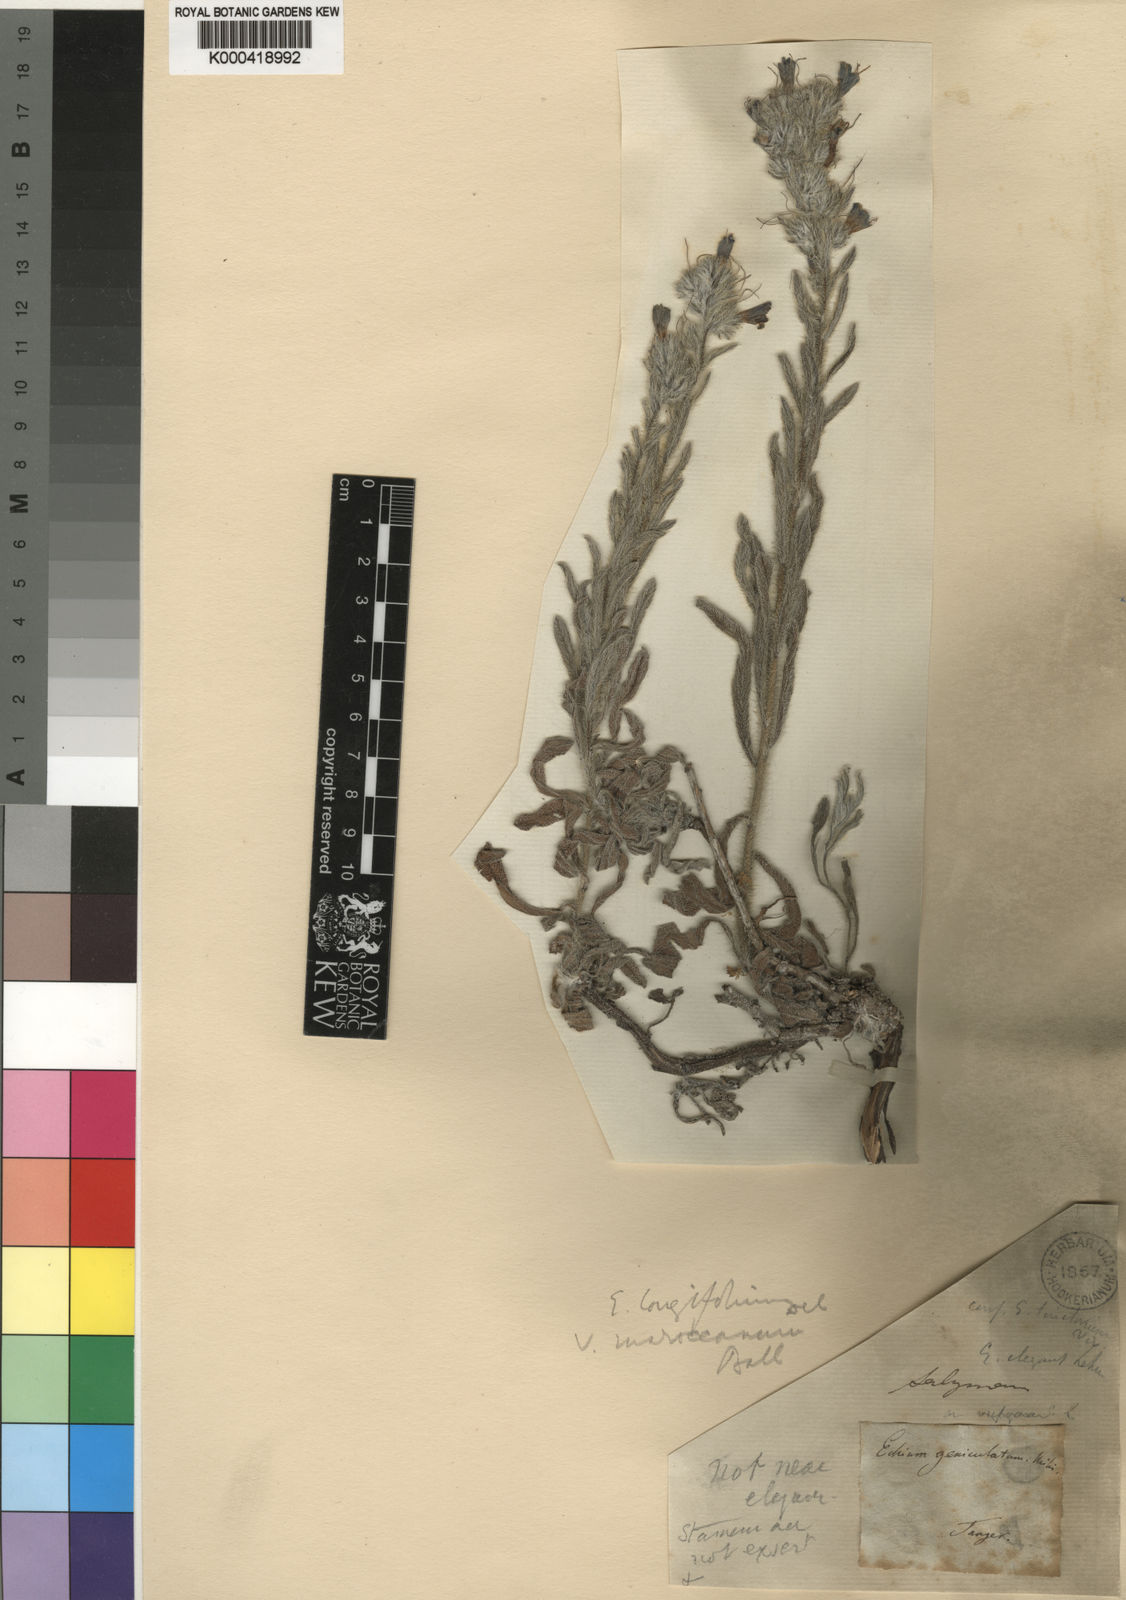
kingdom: Plantae
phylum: Tracheophyta
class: Magnoliopsida
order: Boraginales
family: Boraginaceae
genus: Echium
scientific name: Echium humile
